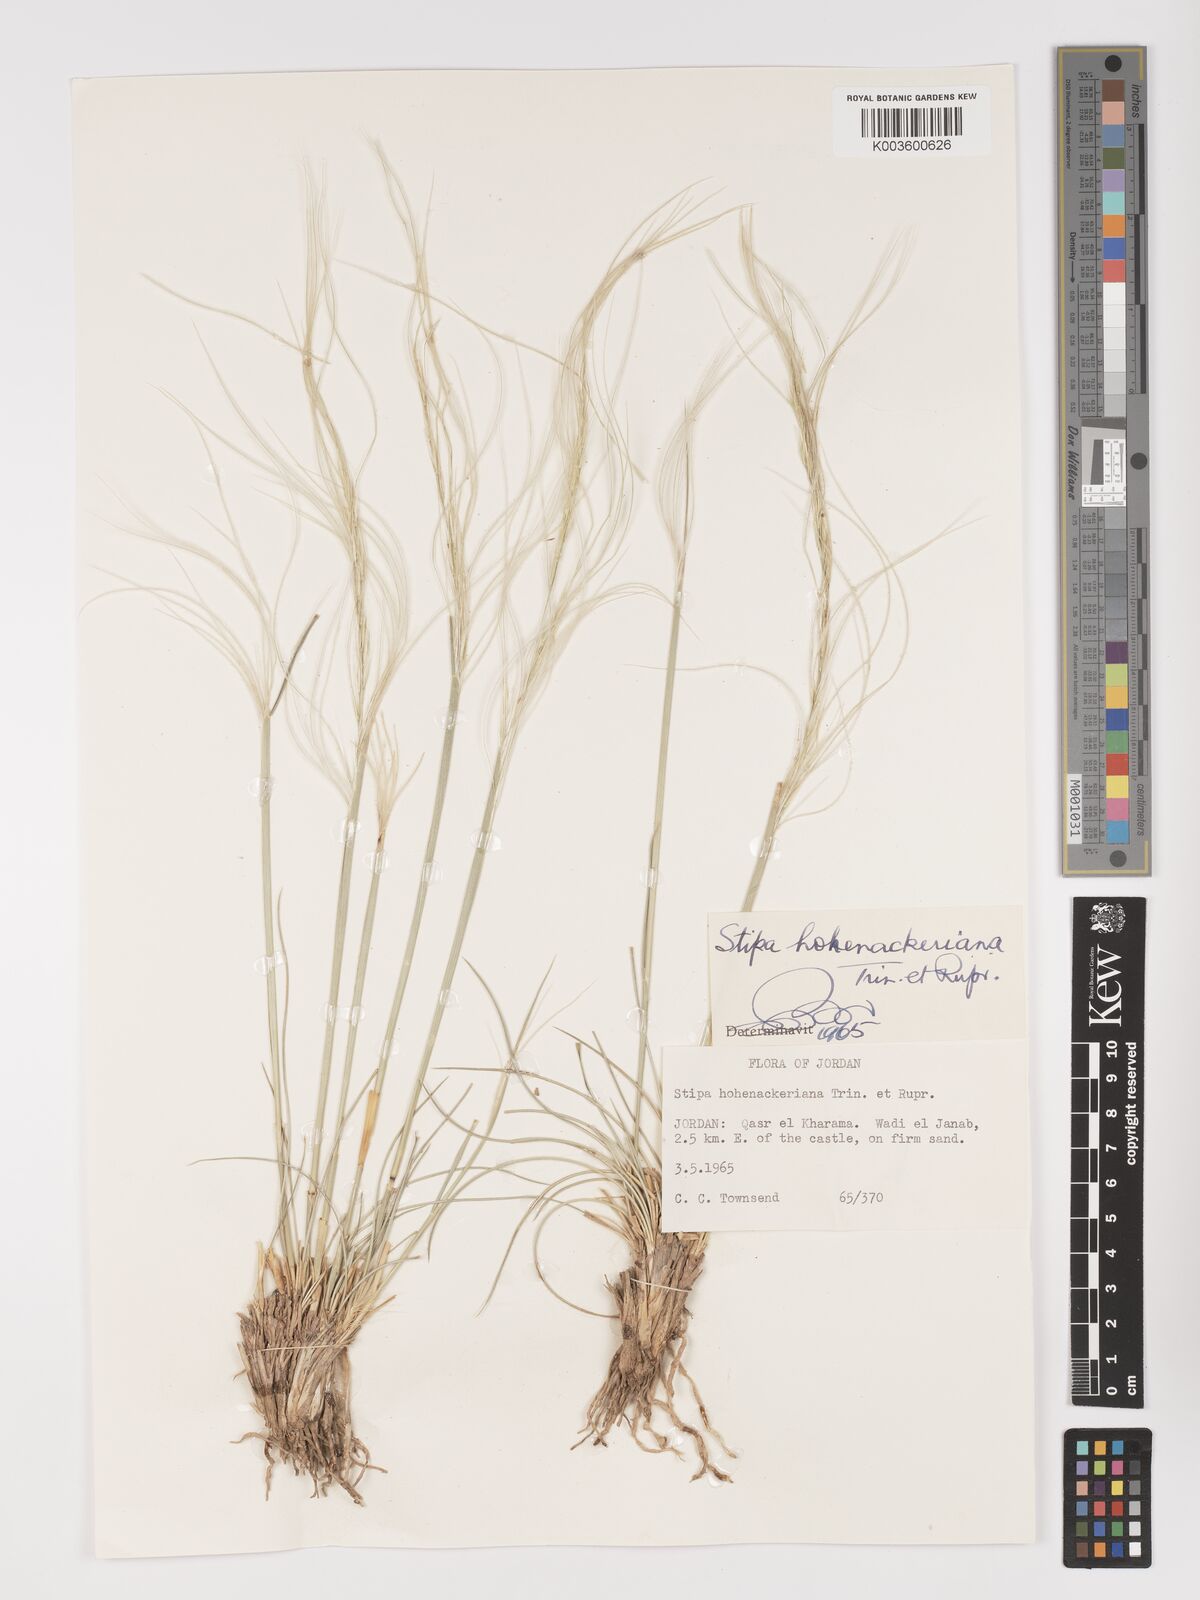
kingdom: Plantae
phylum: Tracheophyta
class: Liliopsida
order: Poales
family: Poaceae
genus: Stipa
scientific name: Stipa hohenackeriana
